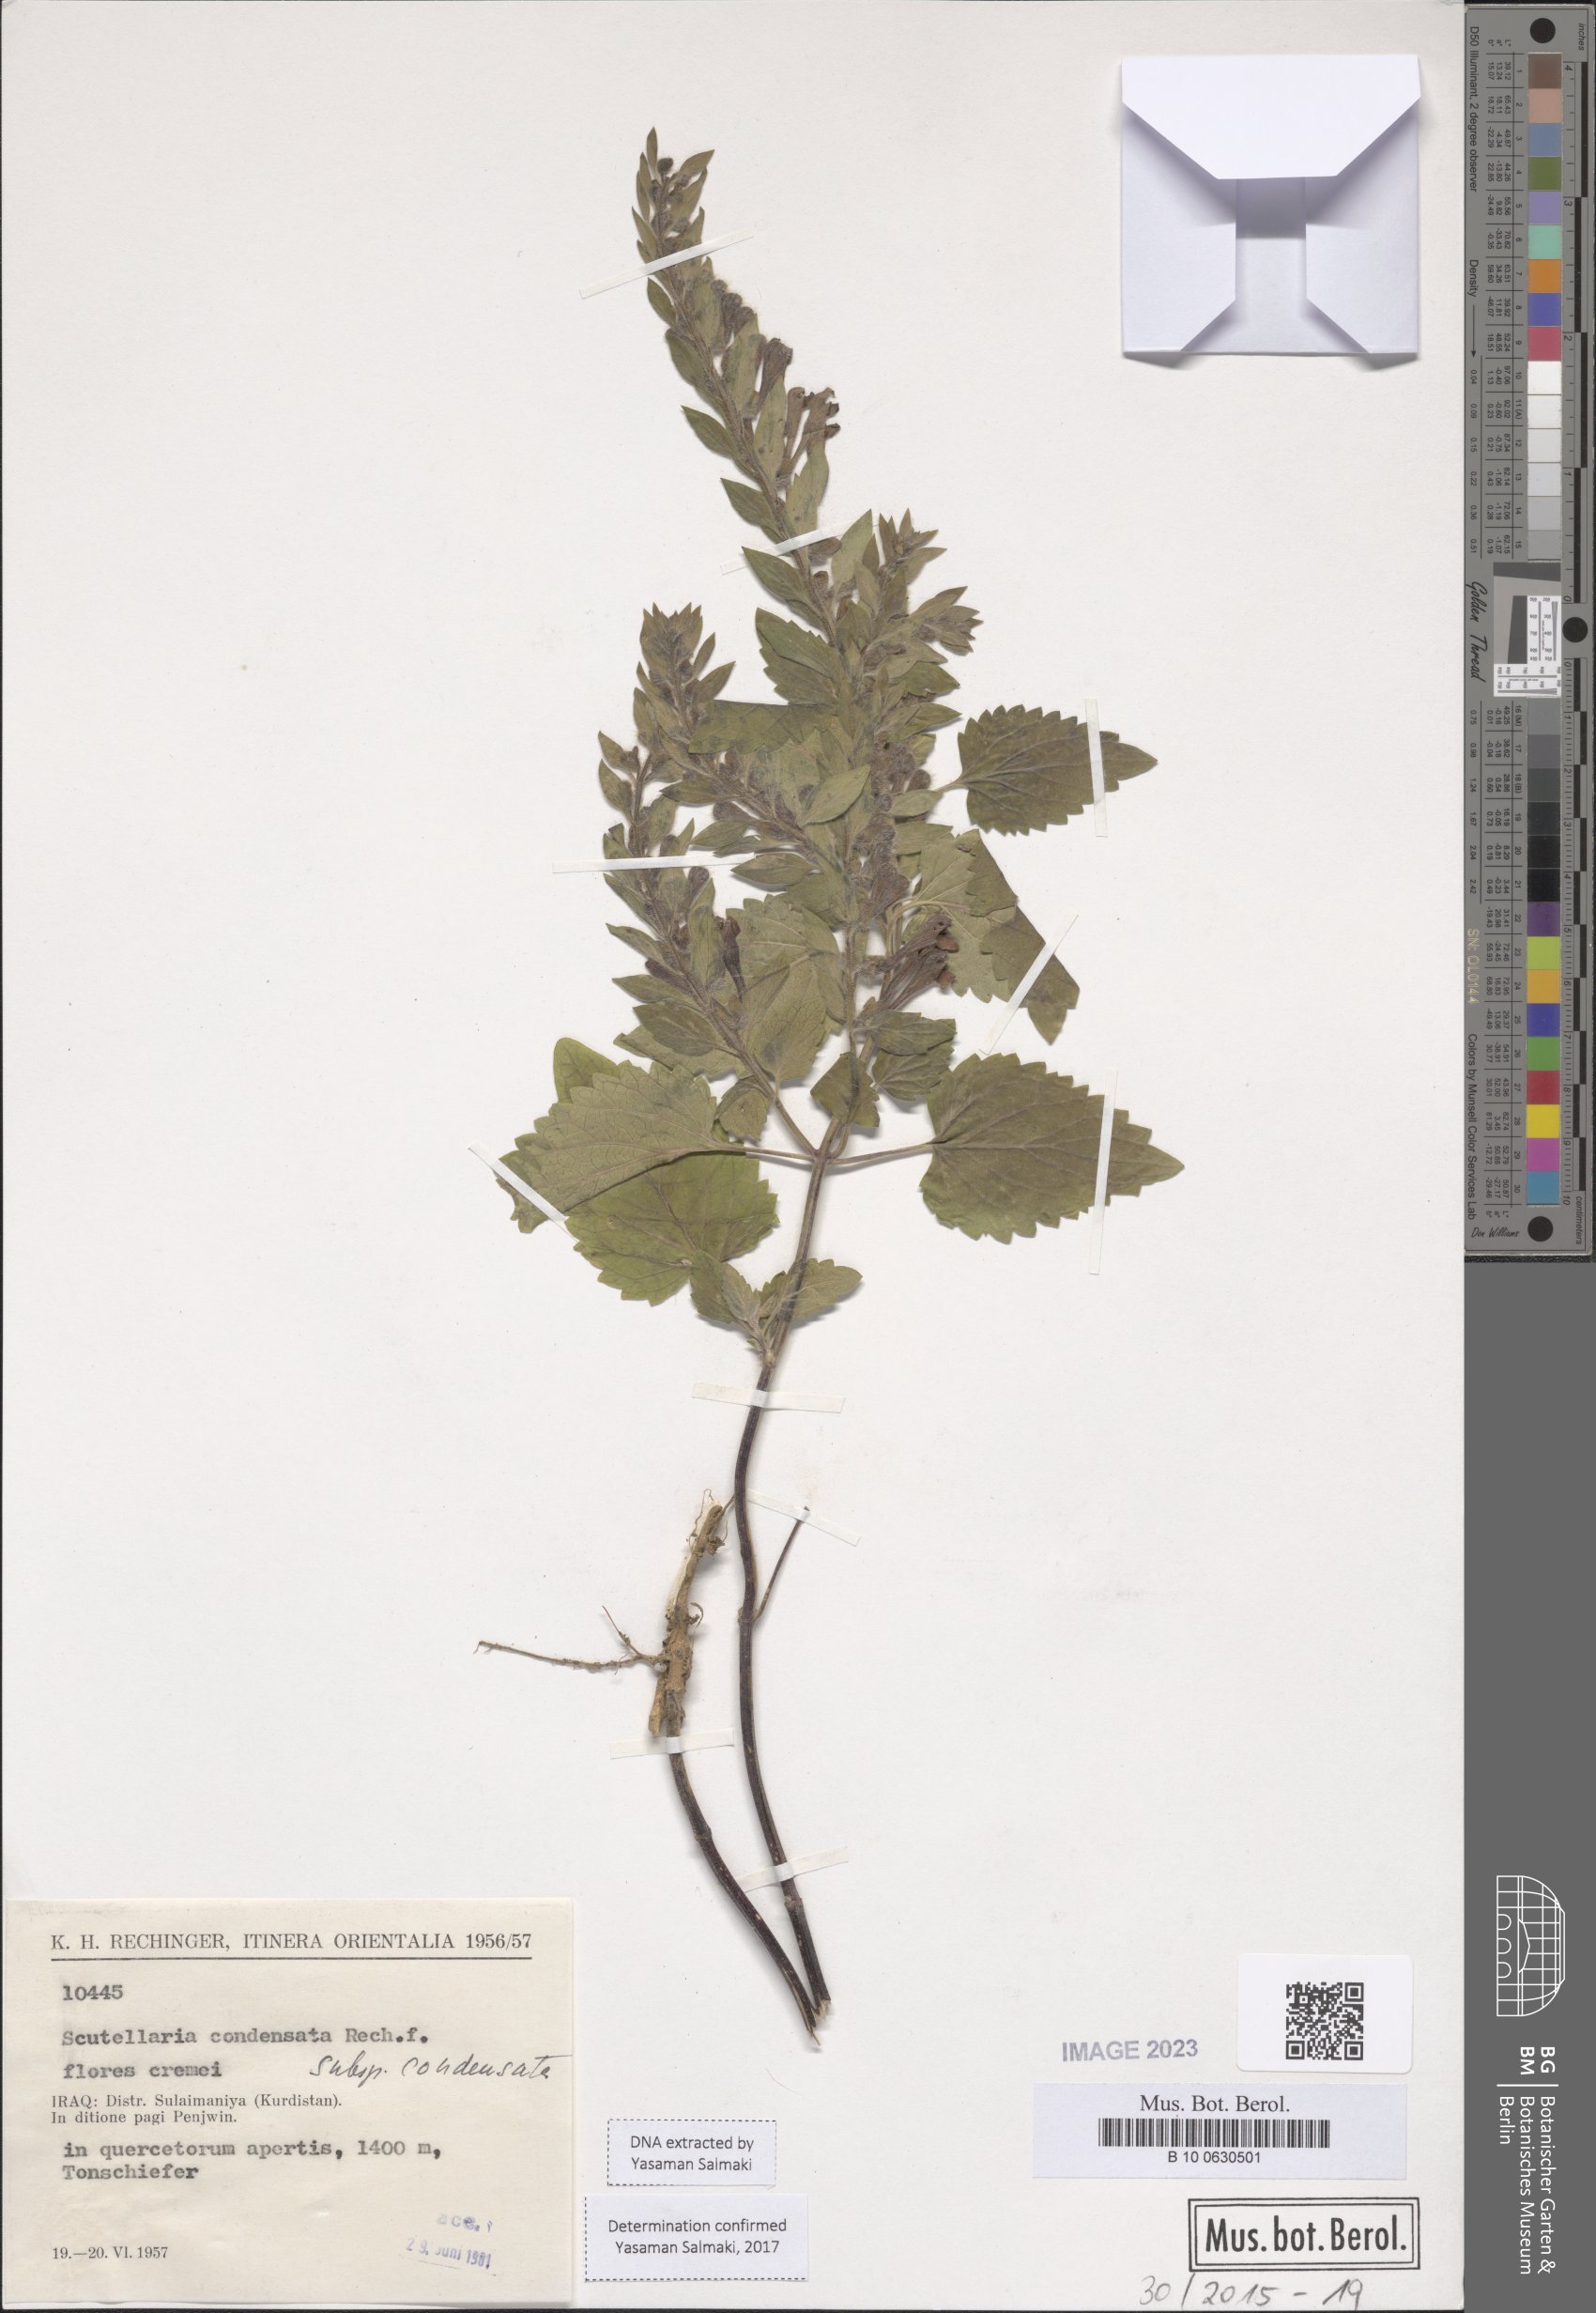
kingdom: Plantae
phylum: Tracheophyta
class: Magnoliopsida
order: Lamiales
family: Lamiaceae
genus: Scutellaria
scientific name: Scutellaria albida
